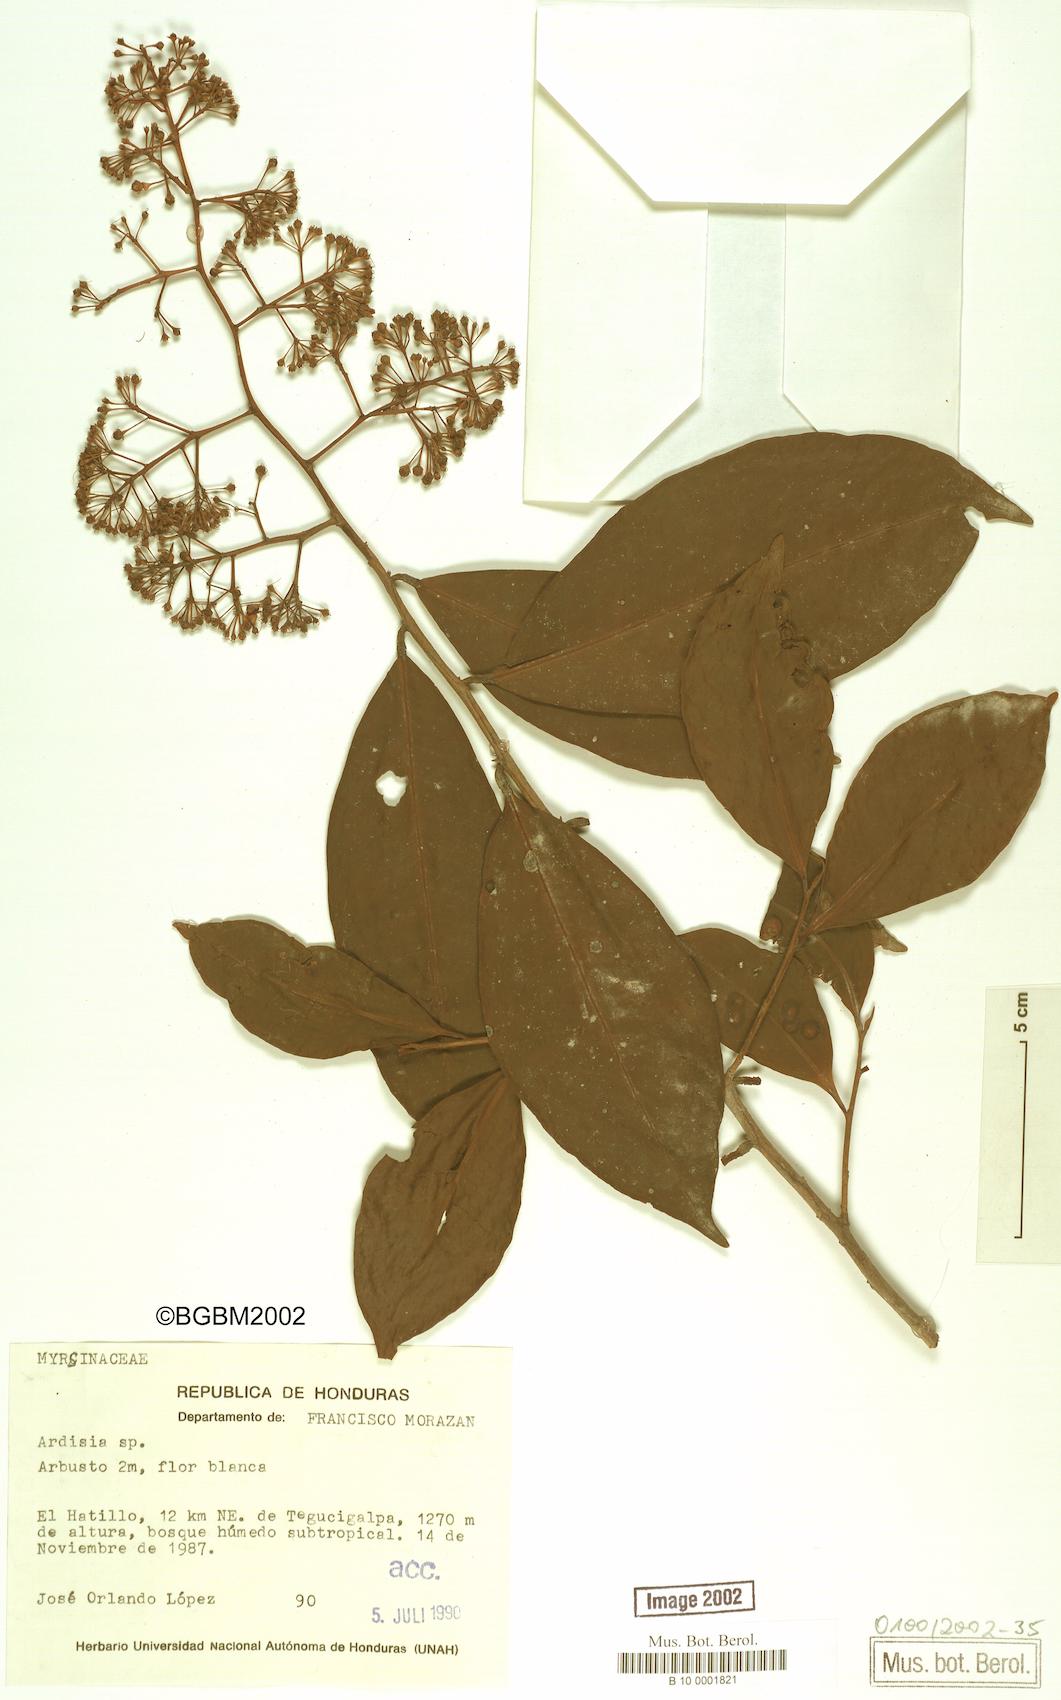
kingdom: Plantae
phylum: Tracheophyta
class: Magnoliopsida
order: Ericales
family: Primulaceae
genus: Ardisia
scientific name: Ardisia
